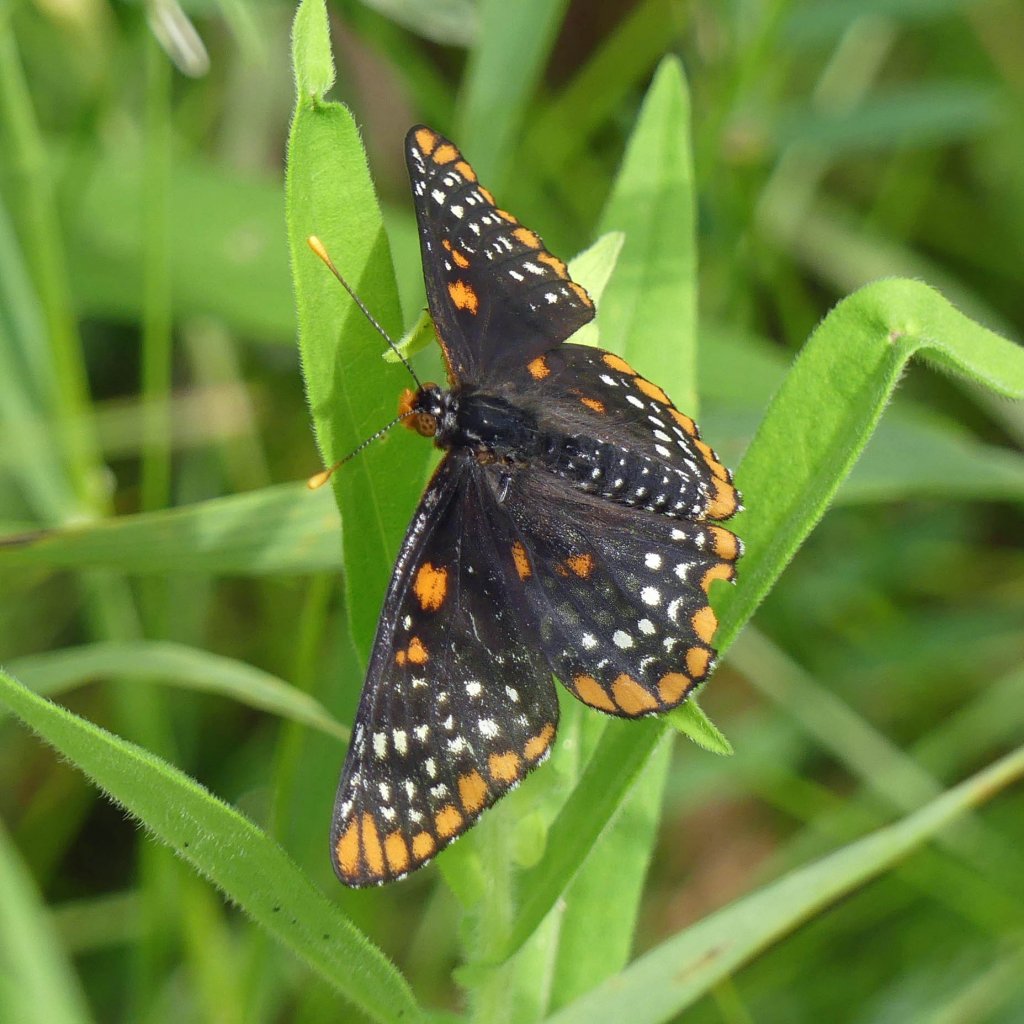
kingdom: Animalia
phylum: Arthropoda
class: Insecta
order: Lepidoptera
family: Nymphalidae
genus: Euphydryas
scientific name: Euphydryas phaeton
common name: Baltimore Checkerspot
